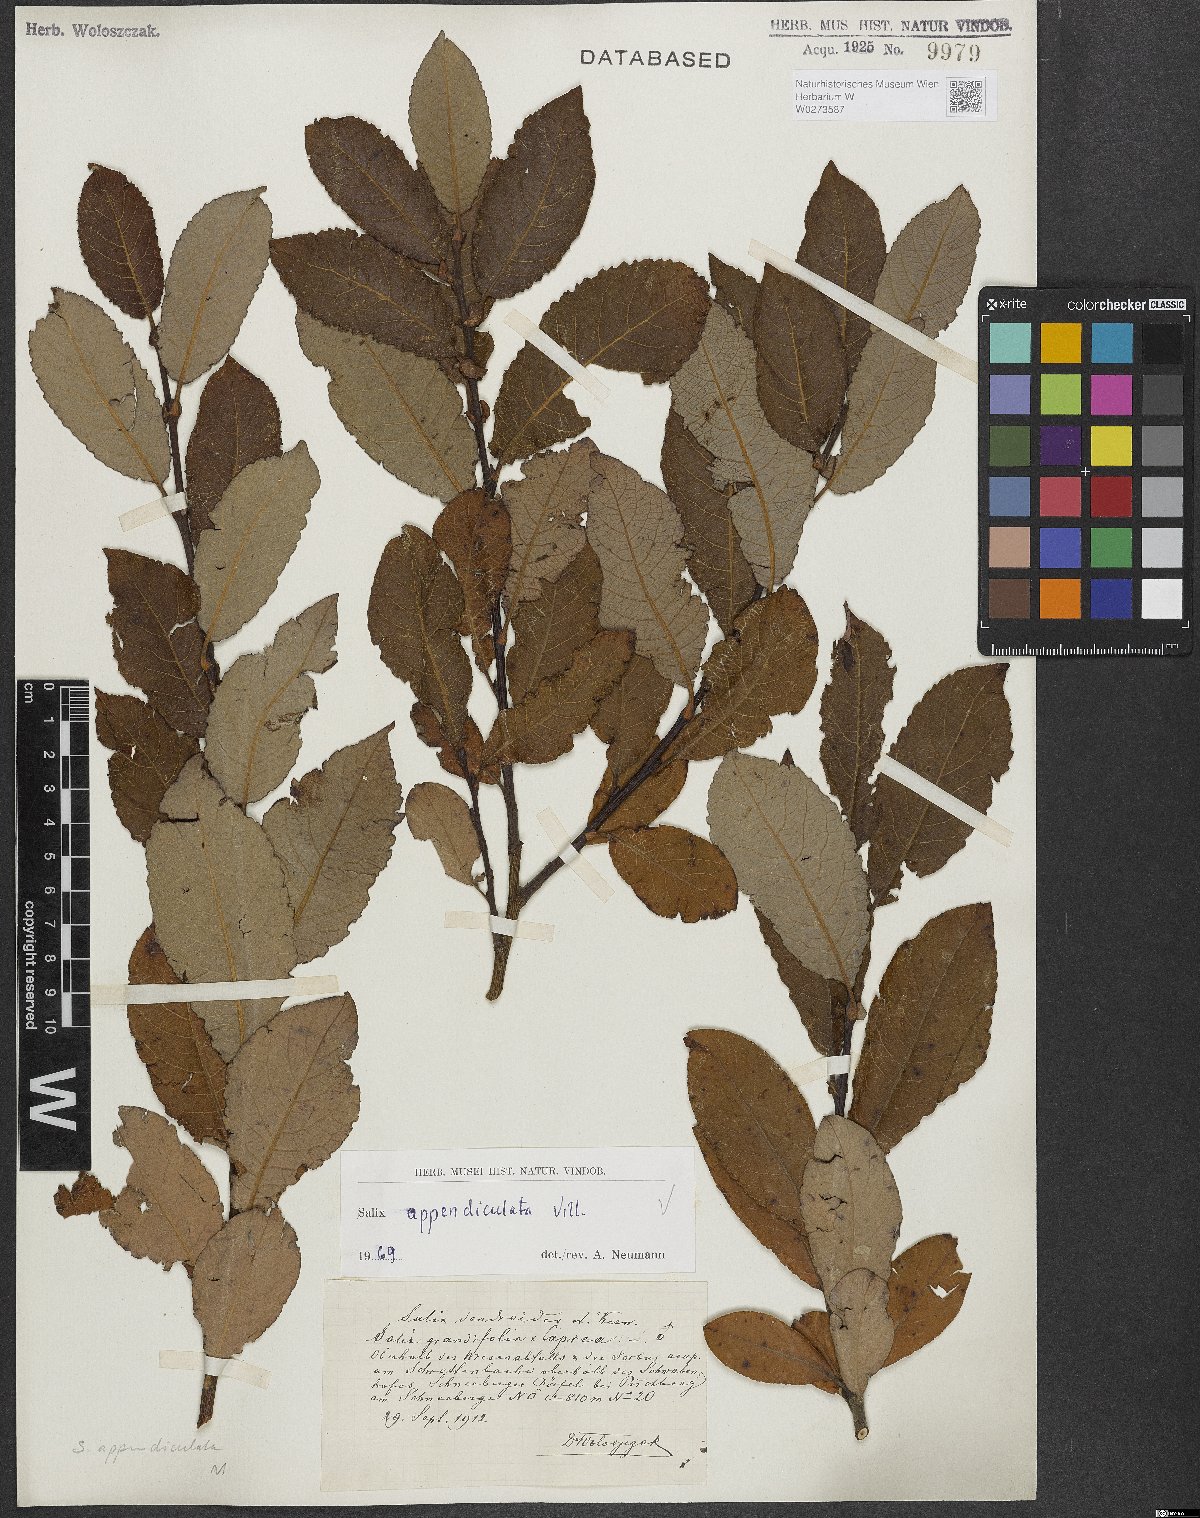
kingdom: Plantae
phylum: Tracheophyta
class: Magnoliopsida
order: Malpighiales
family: Salicaceae
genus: Salix
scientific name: Salix appendiculata
